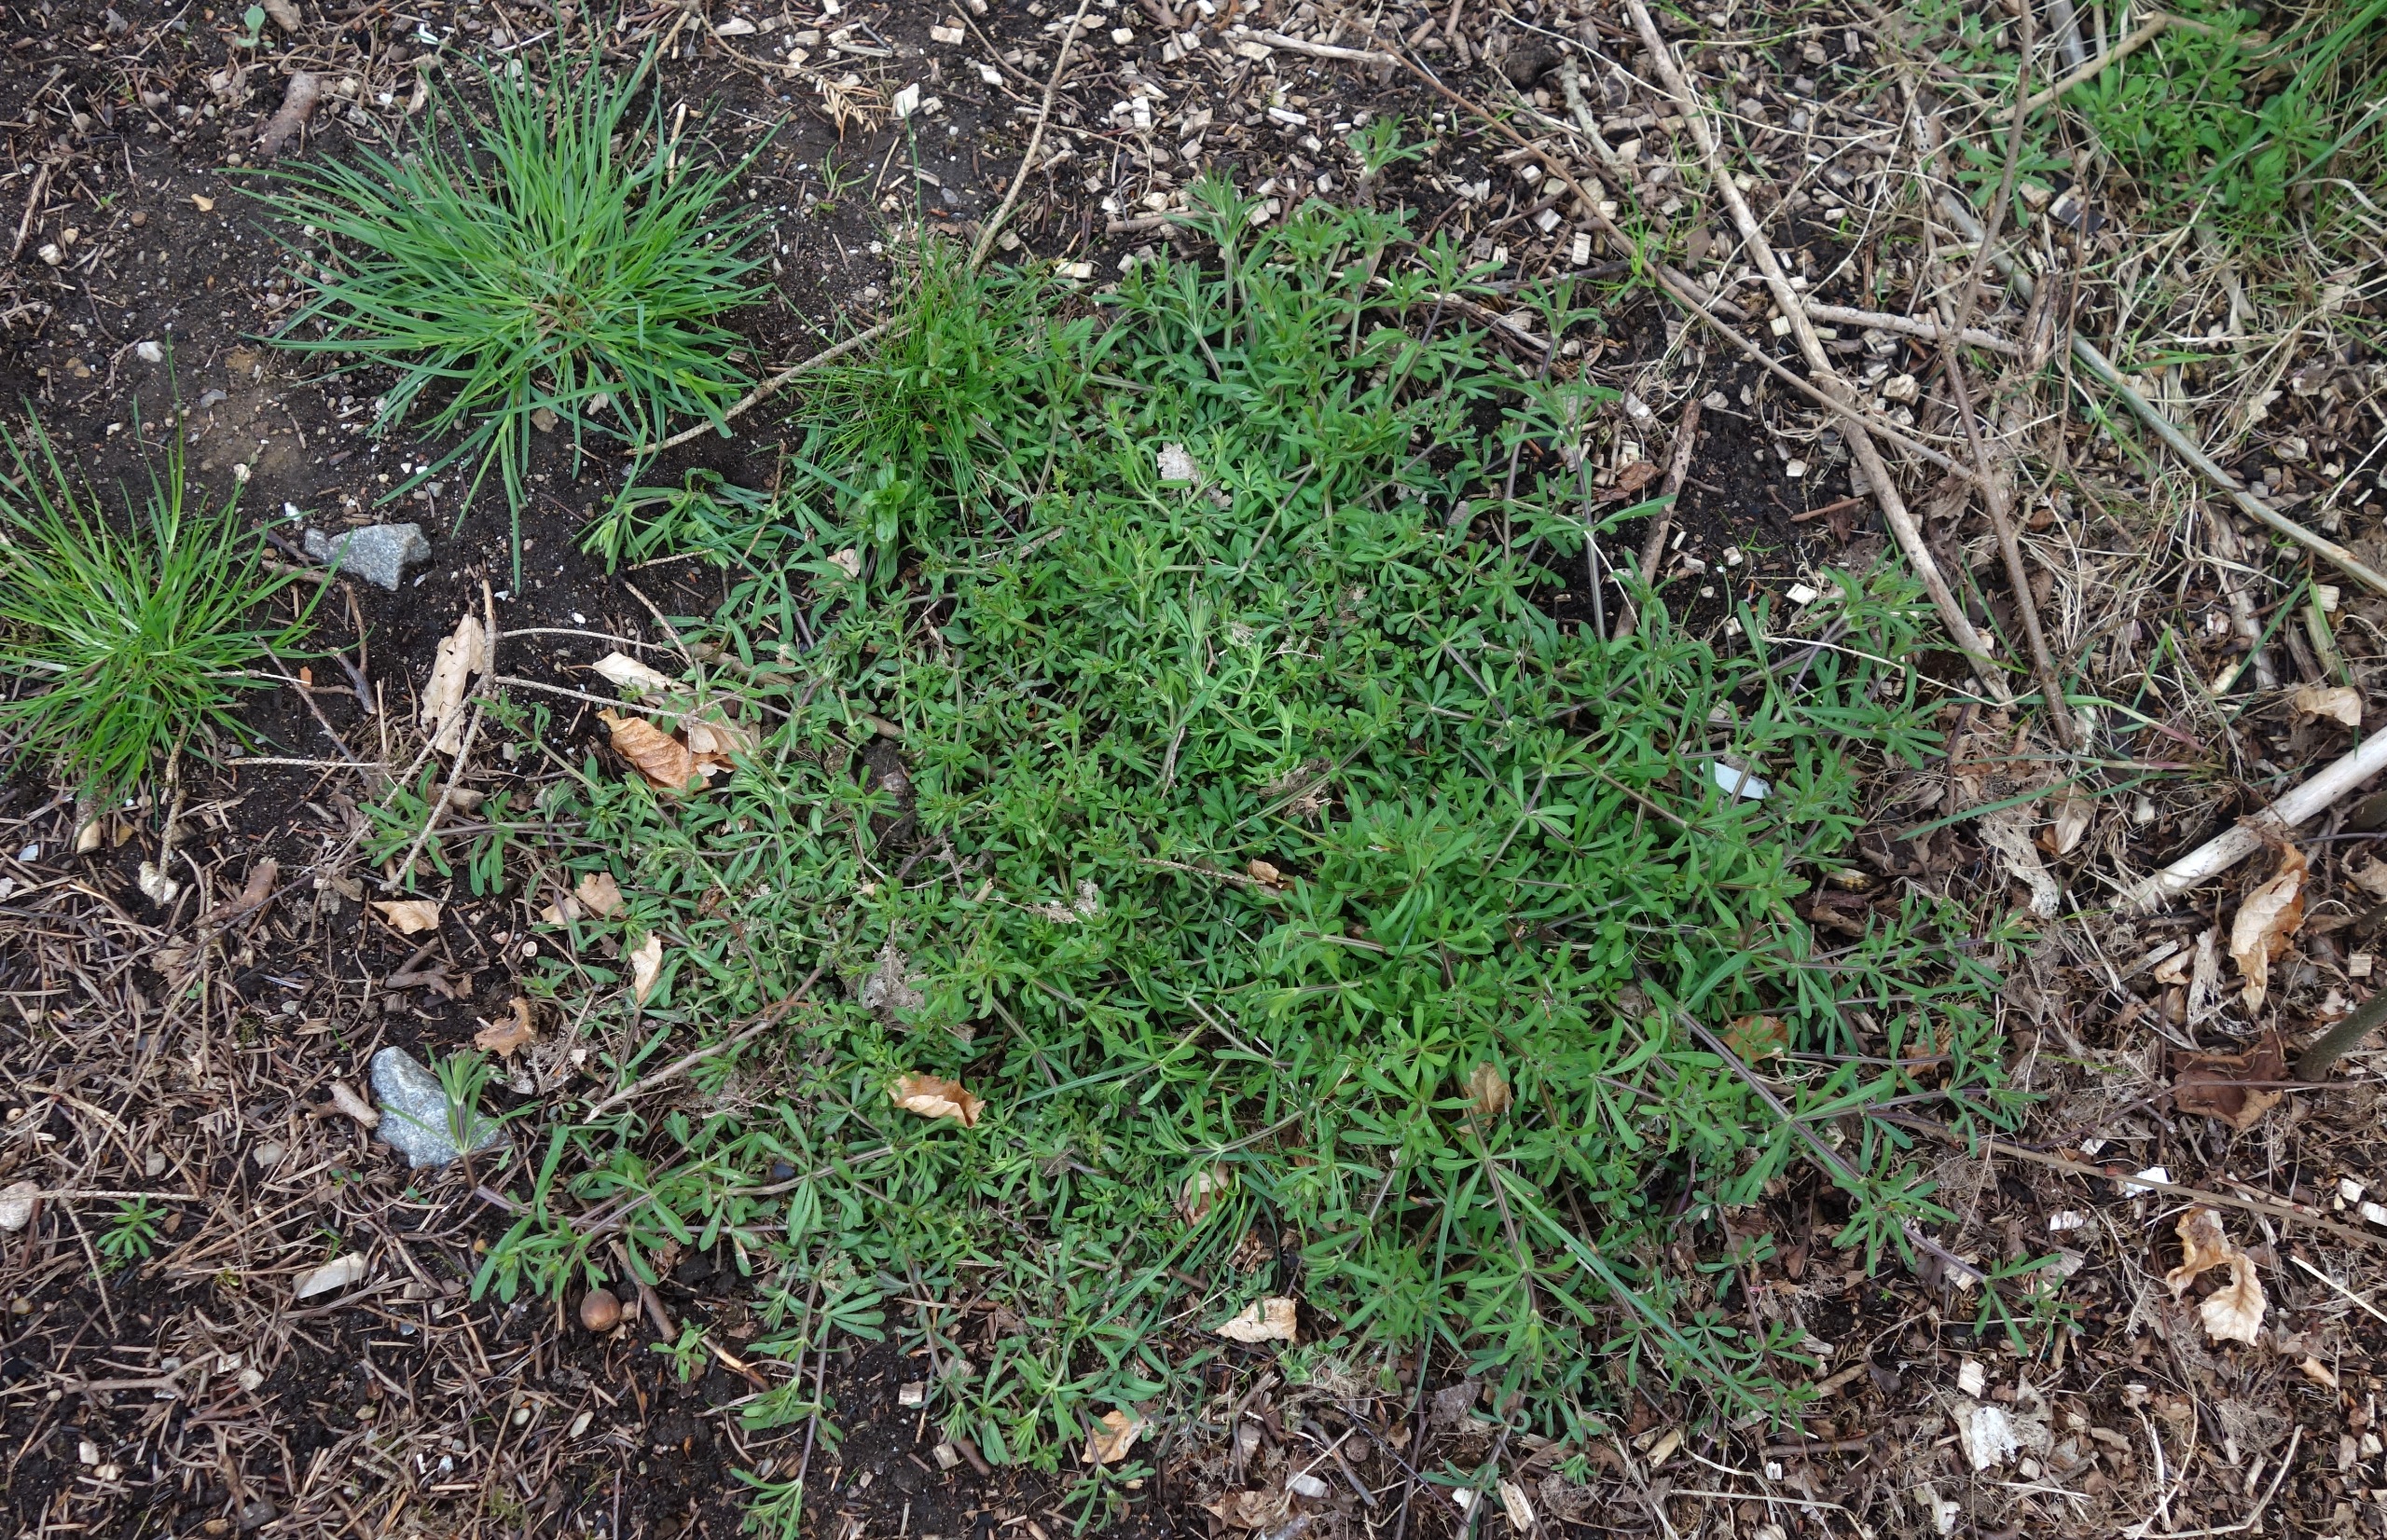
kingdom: Plantae
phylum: Tracheophyta
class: Magnoliopsida
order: Gentianales
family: Rubiaceae
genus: Galium
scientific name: Galium aparine
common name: Burre-snerre
